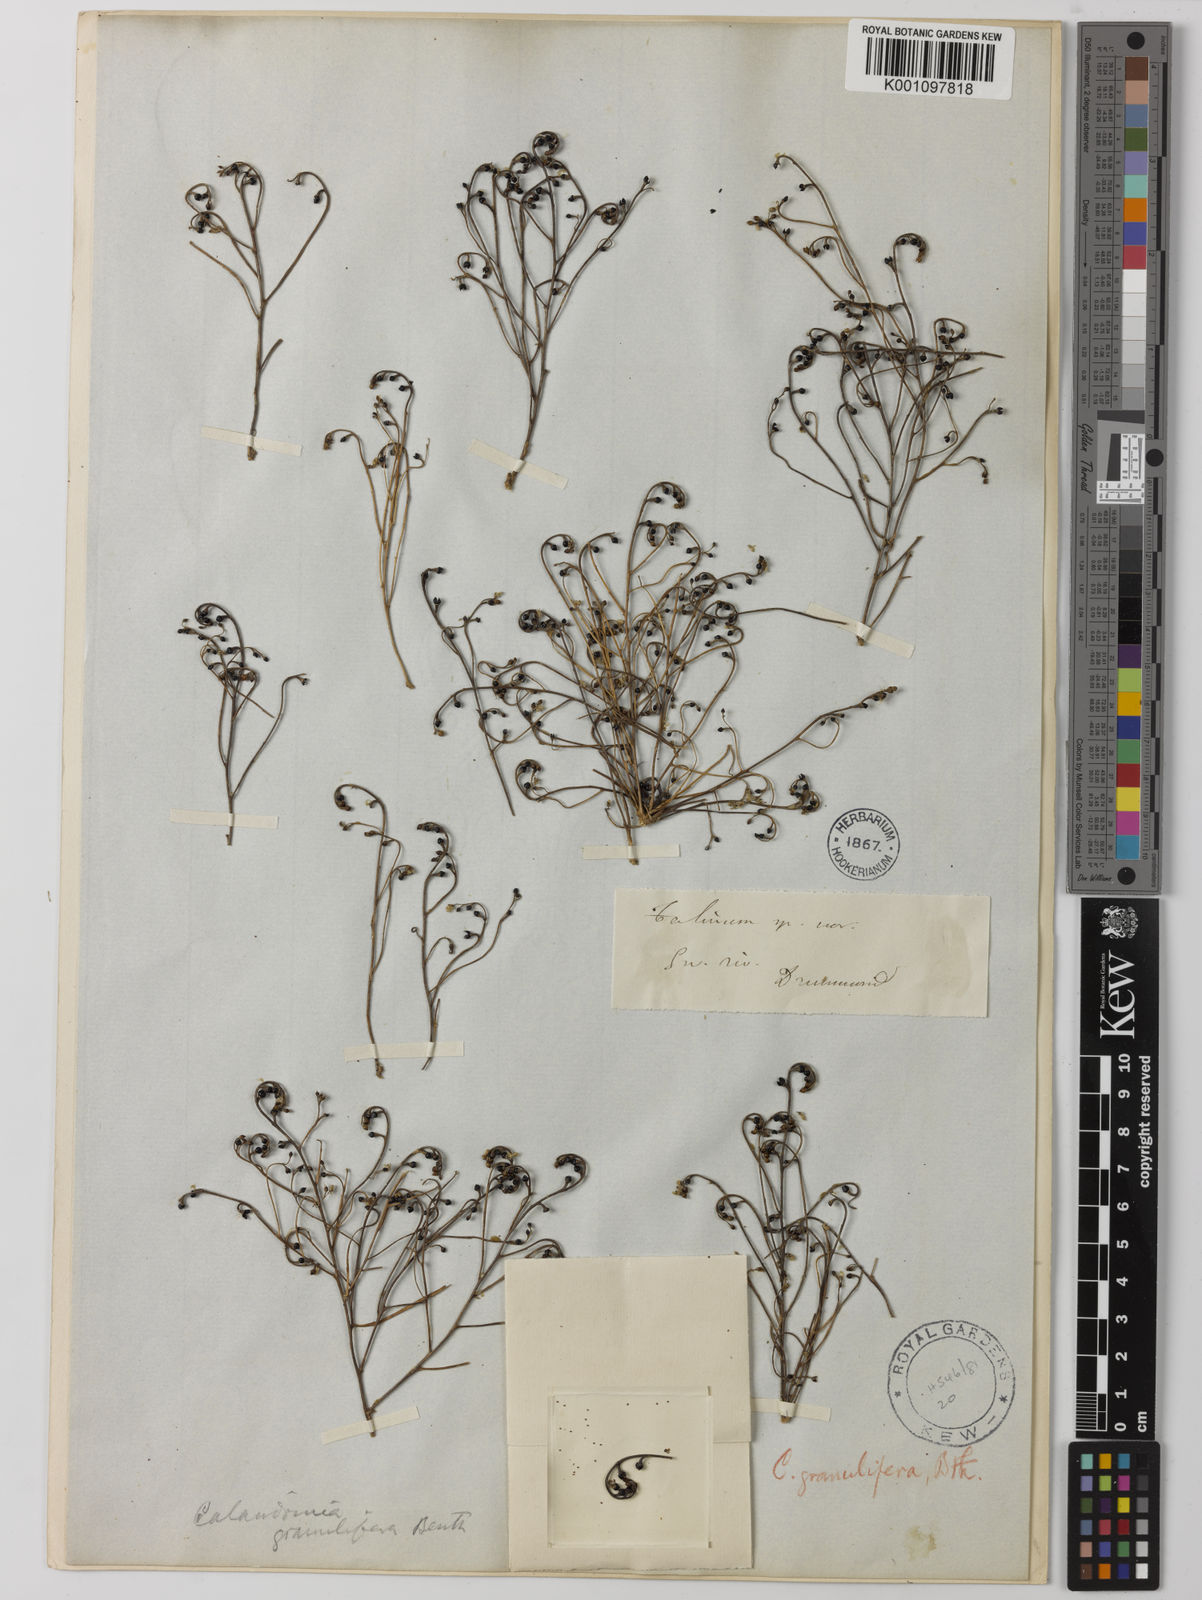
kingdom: Plantae
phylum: Tracheophyta
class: Magnoliopsida
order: Caryophyllales
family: Montiaceae
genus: Rumicastrum
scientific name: Rumicastrum granuliferum
